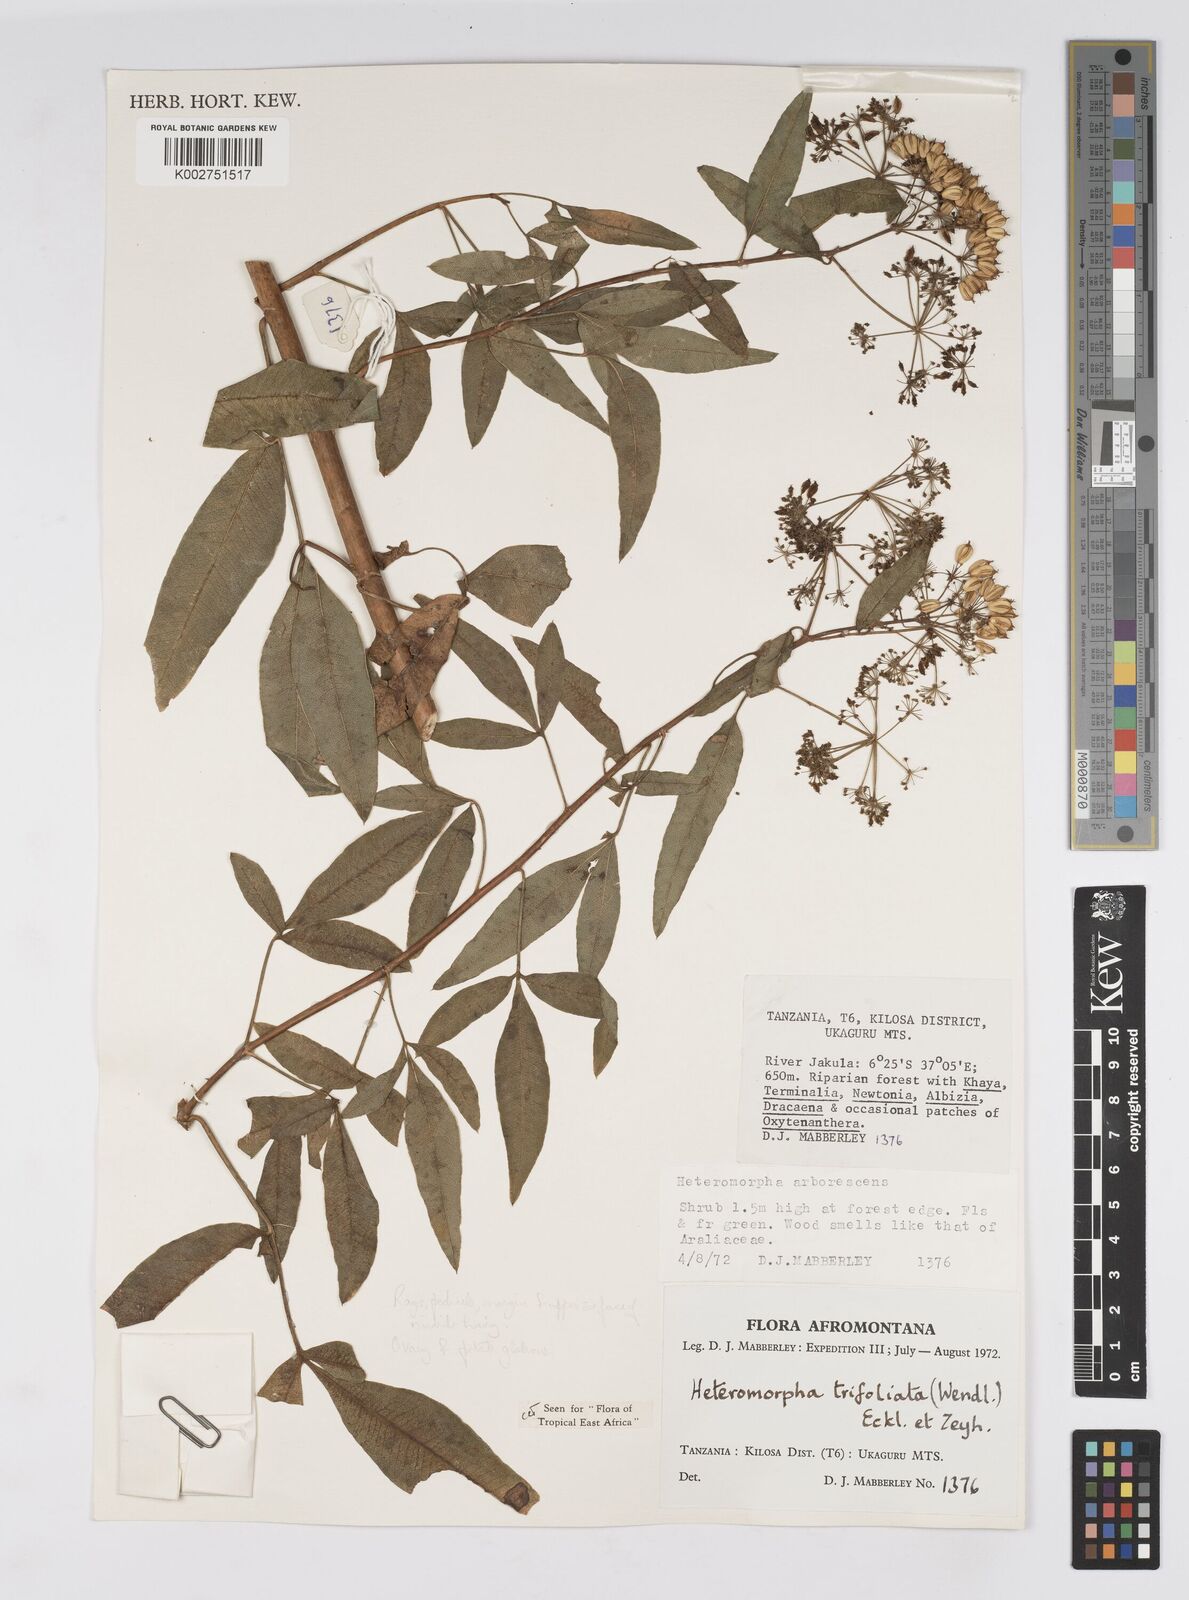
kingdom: Plantae
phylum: Tracheophyta
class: Magnoliopsida
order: Apiales
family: Apiaceae
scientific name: Apiaceae
